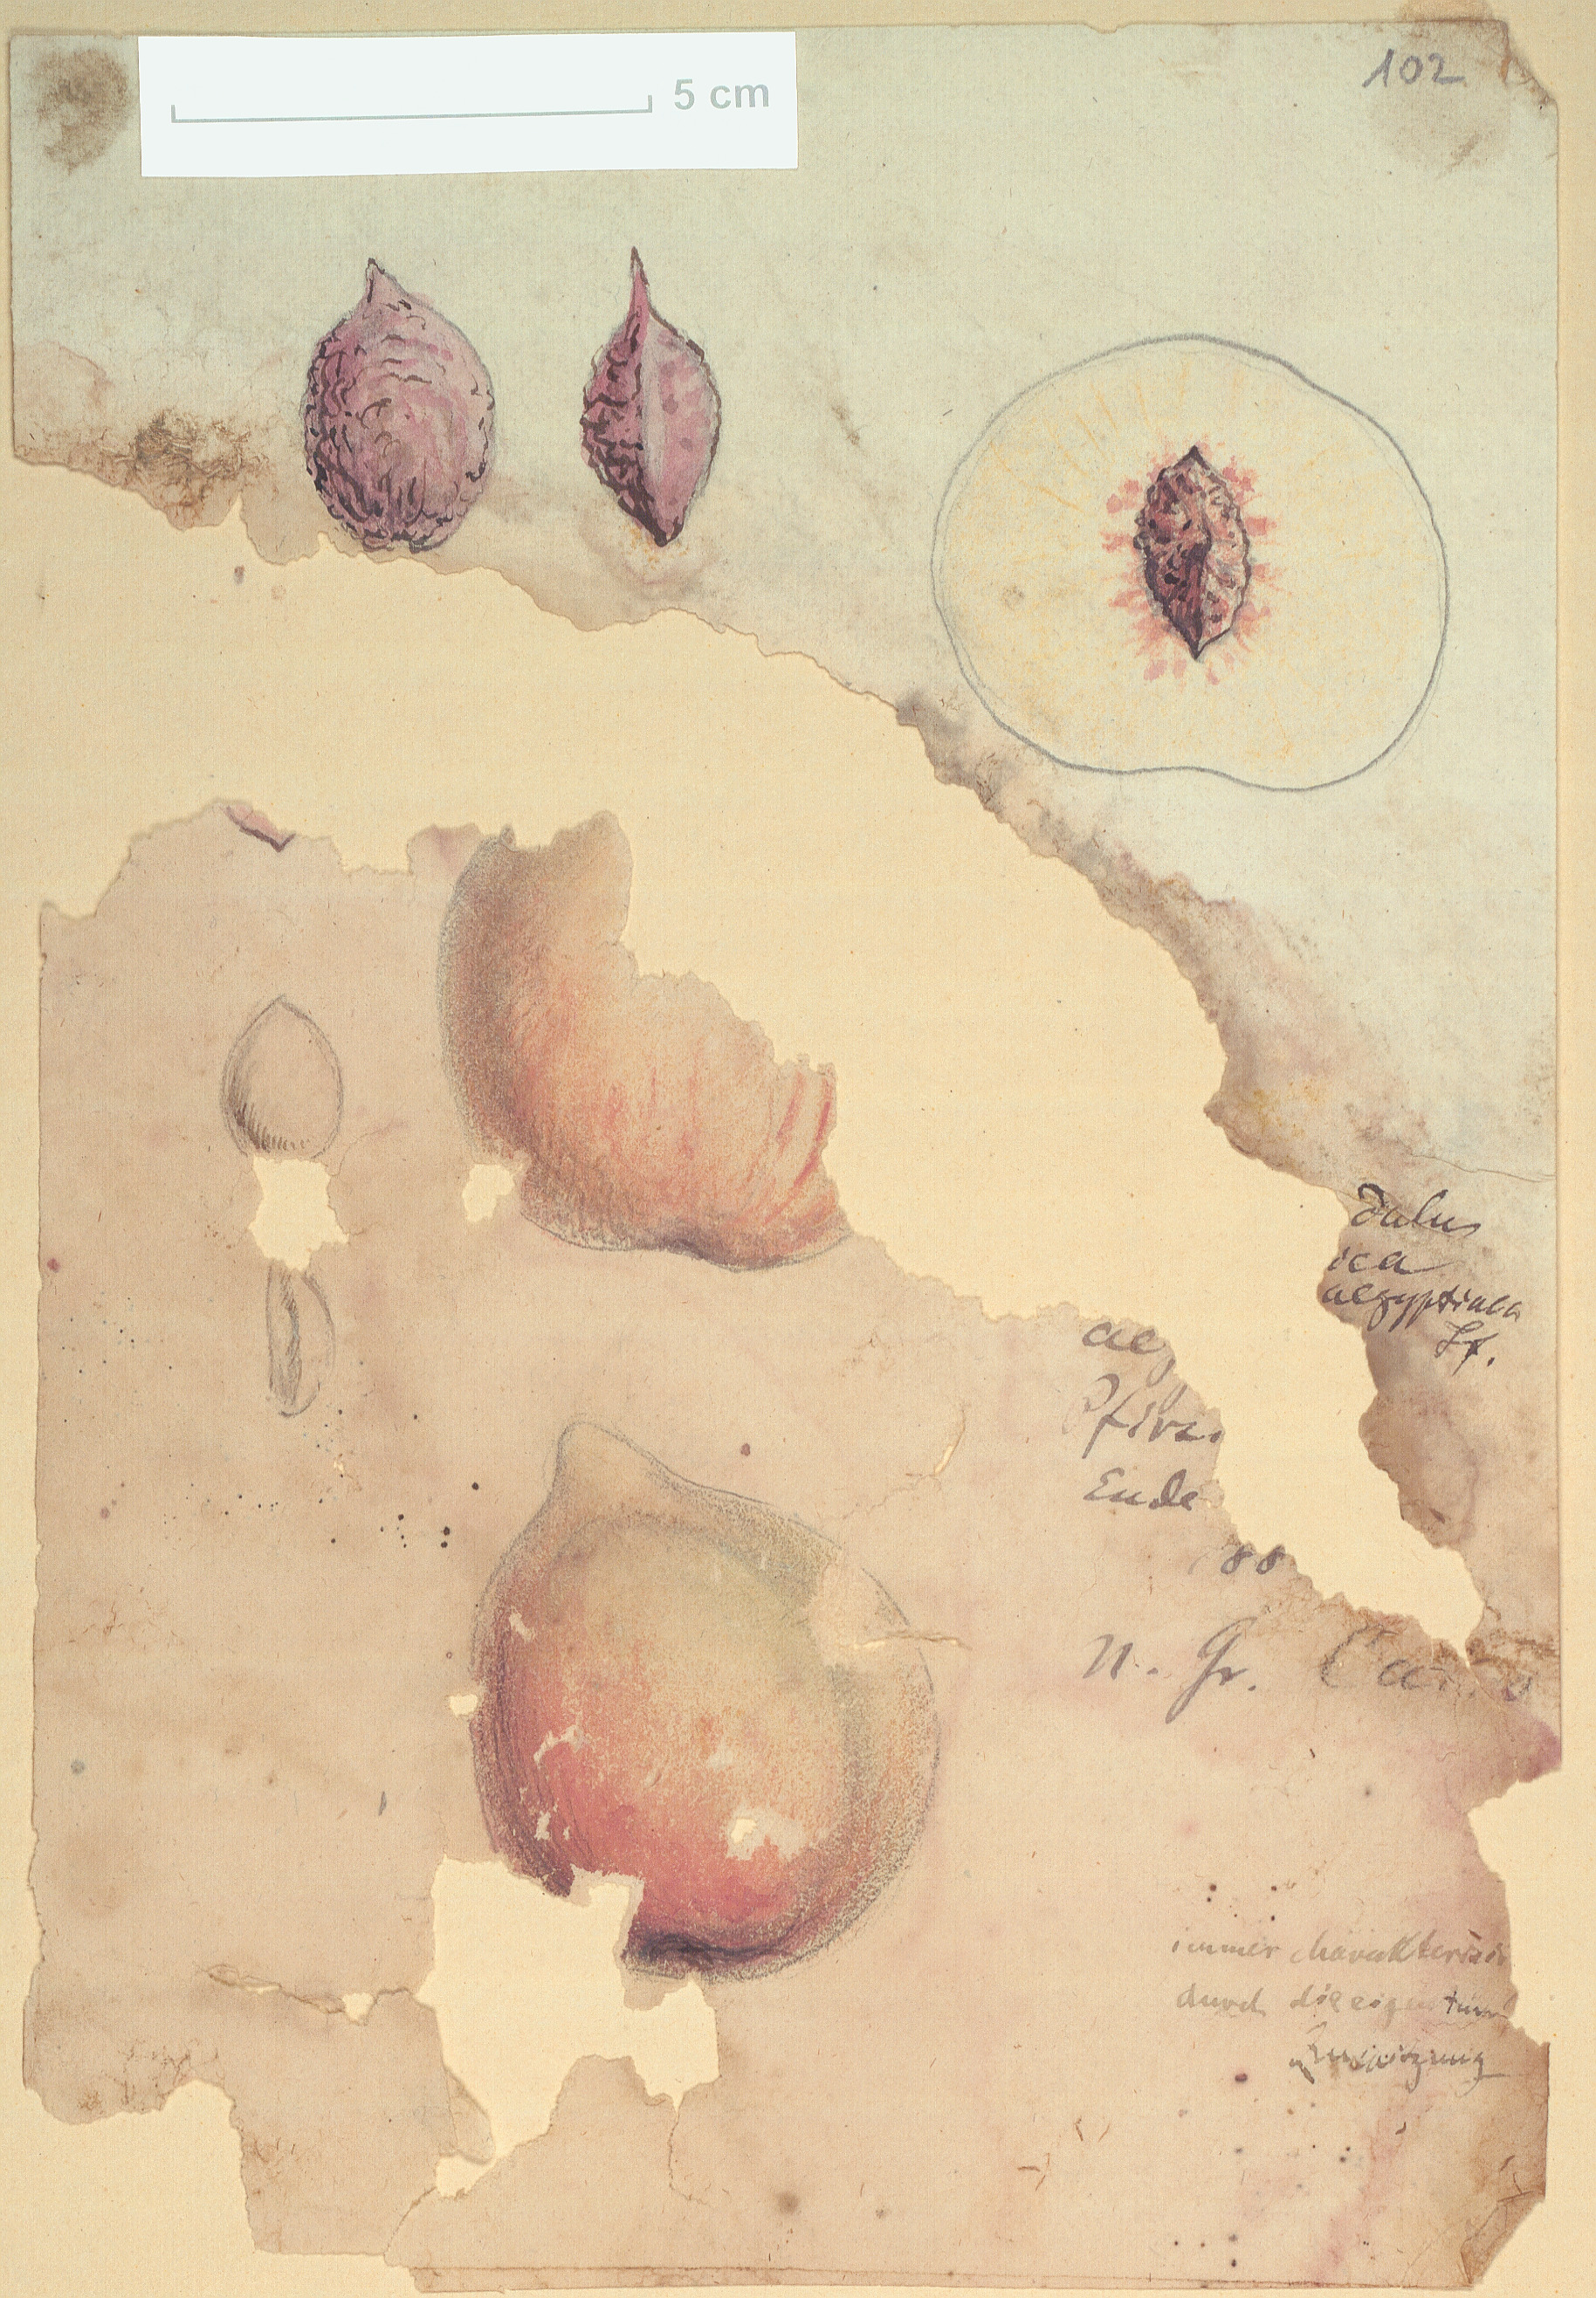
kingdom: Plantae
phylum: Tracheophyta
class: Magnoliopsida
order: Rosales
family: Rosaceae
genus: Prunus
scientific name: Prunus persica
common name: Peach
